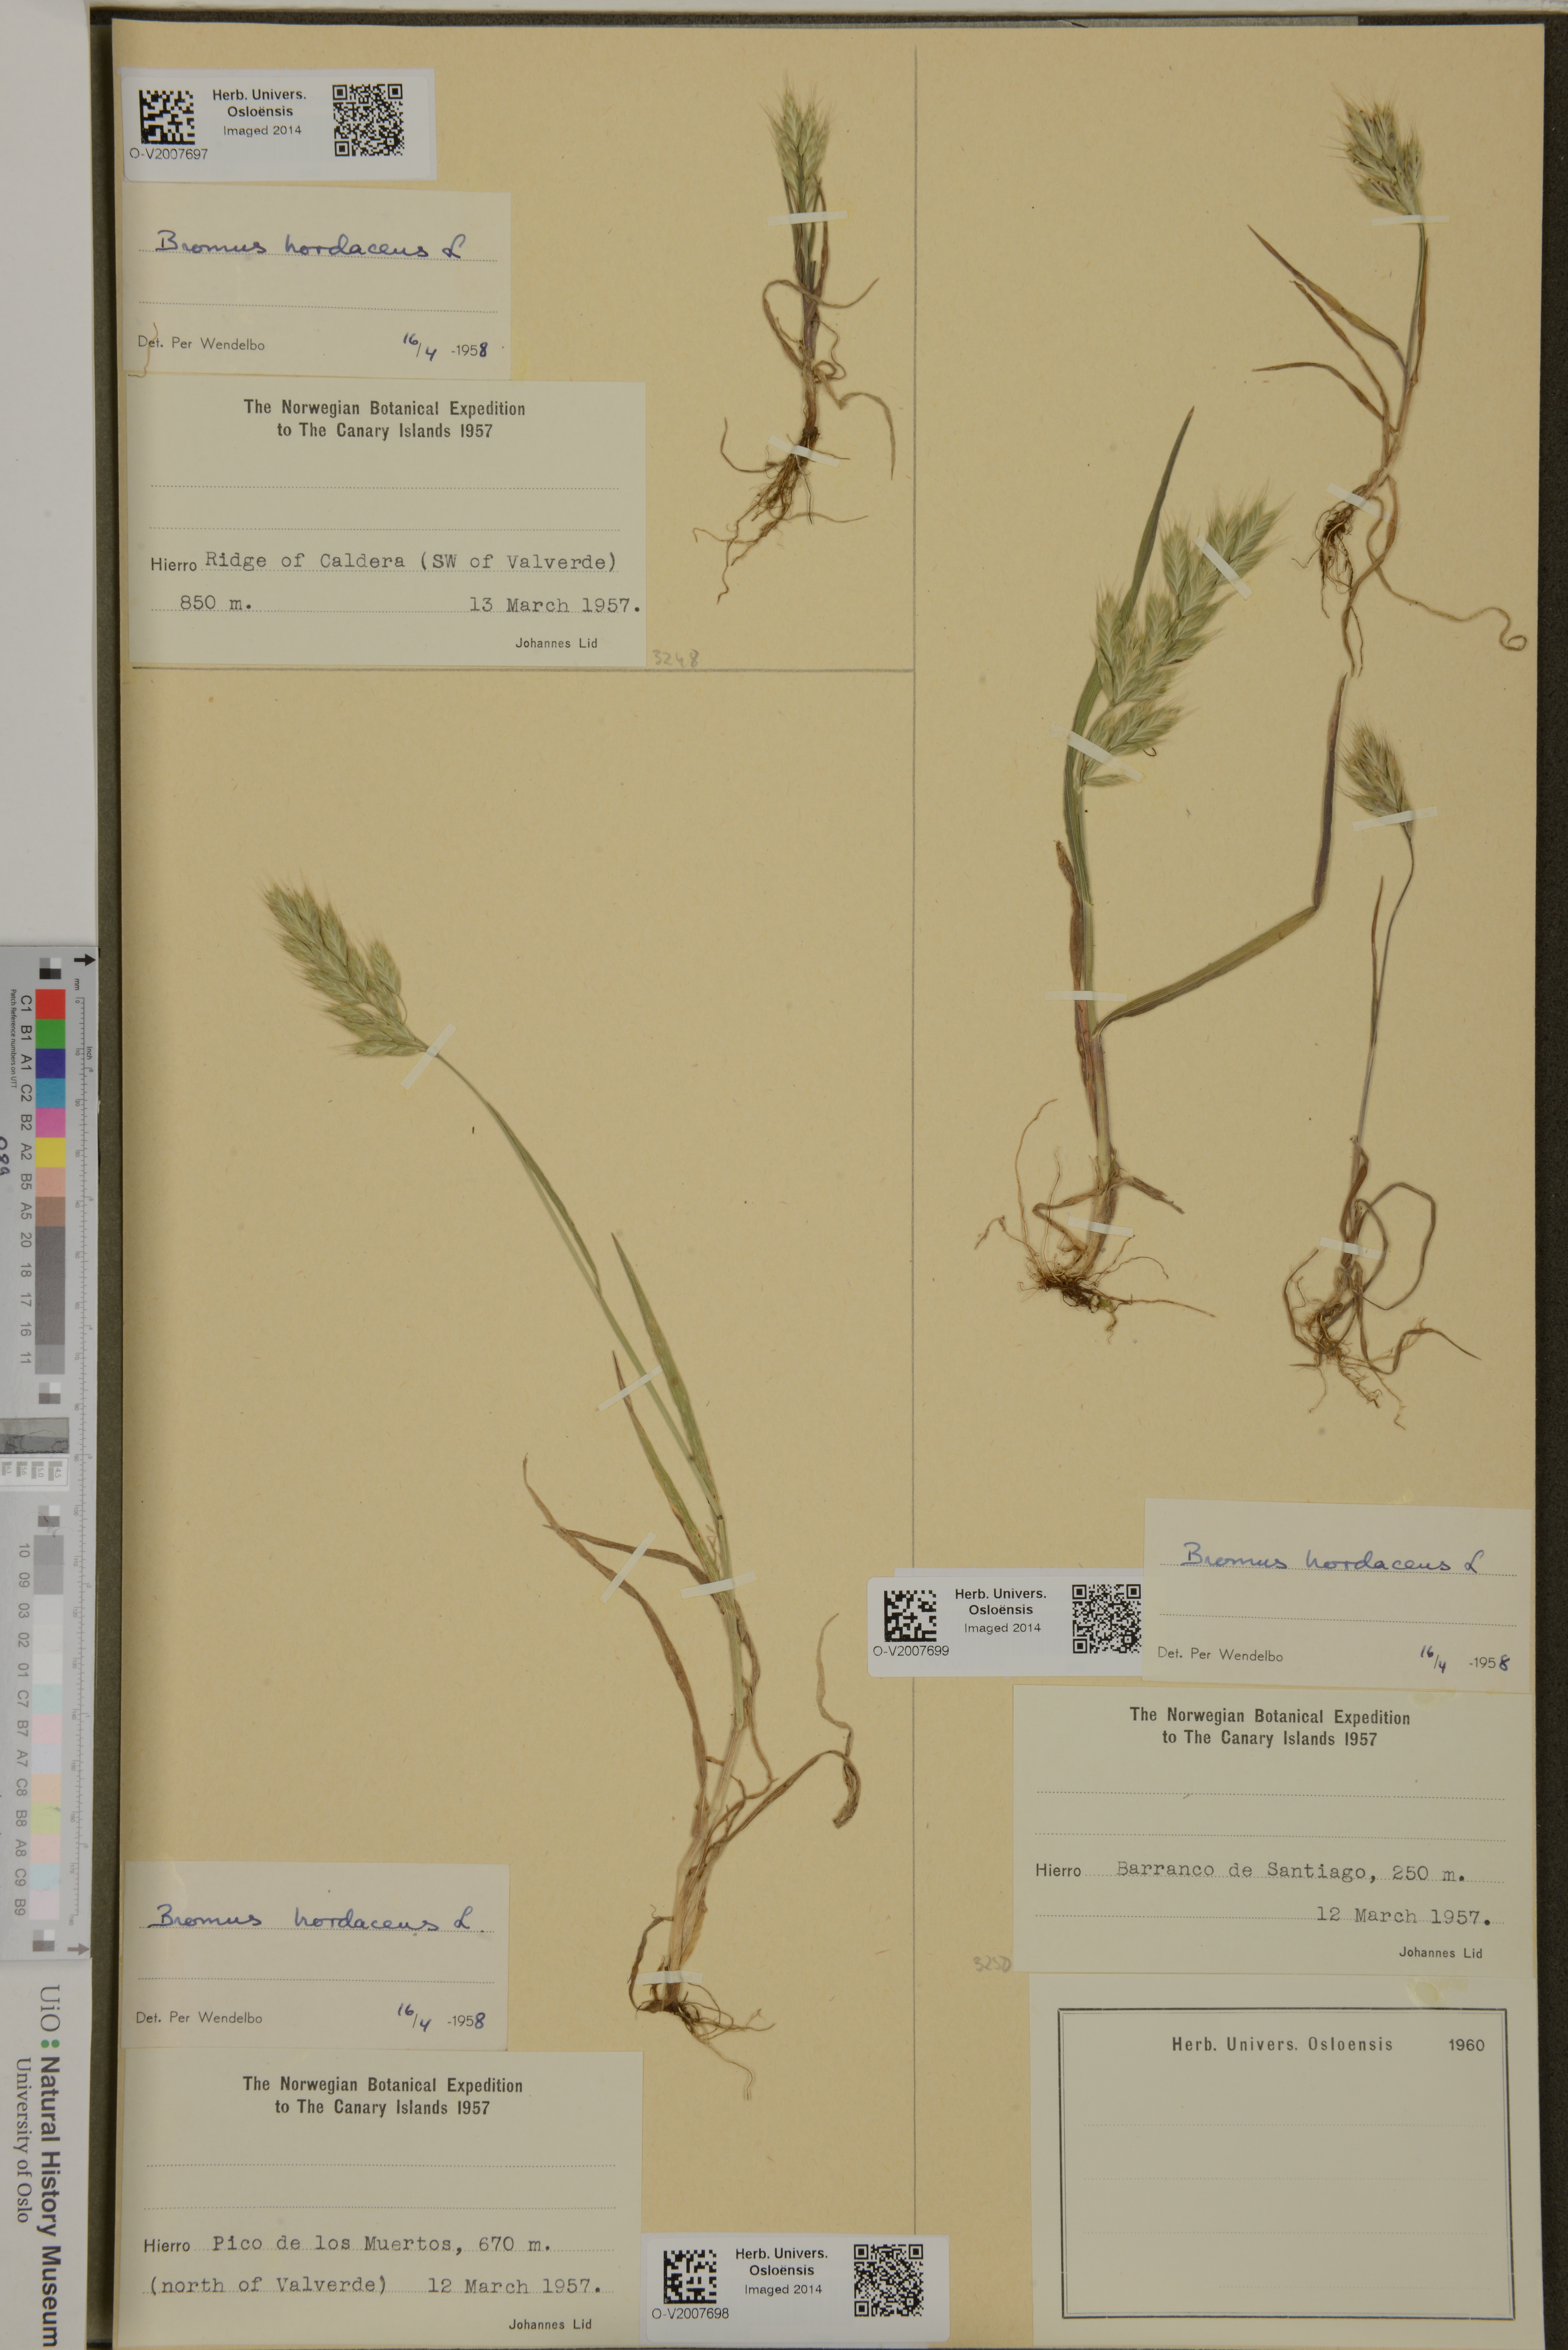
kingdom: Plantae
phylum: Tracheophyta
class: Liliopsida
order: Poales
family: Poaceae
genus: Bromus
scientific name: Bromus hordeaceus
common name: Soft brome
